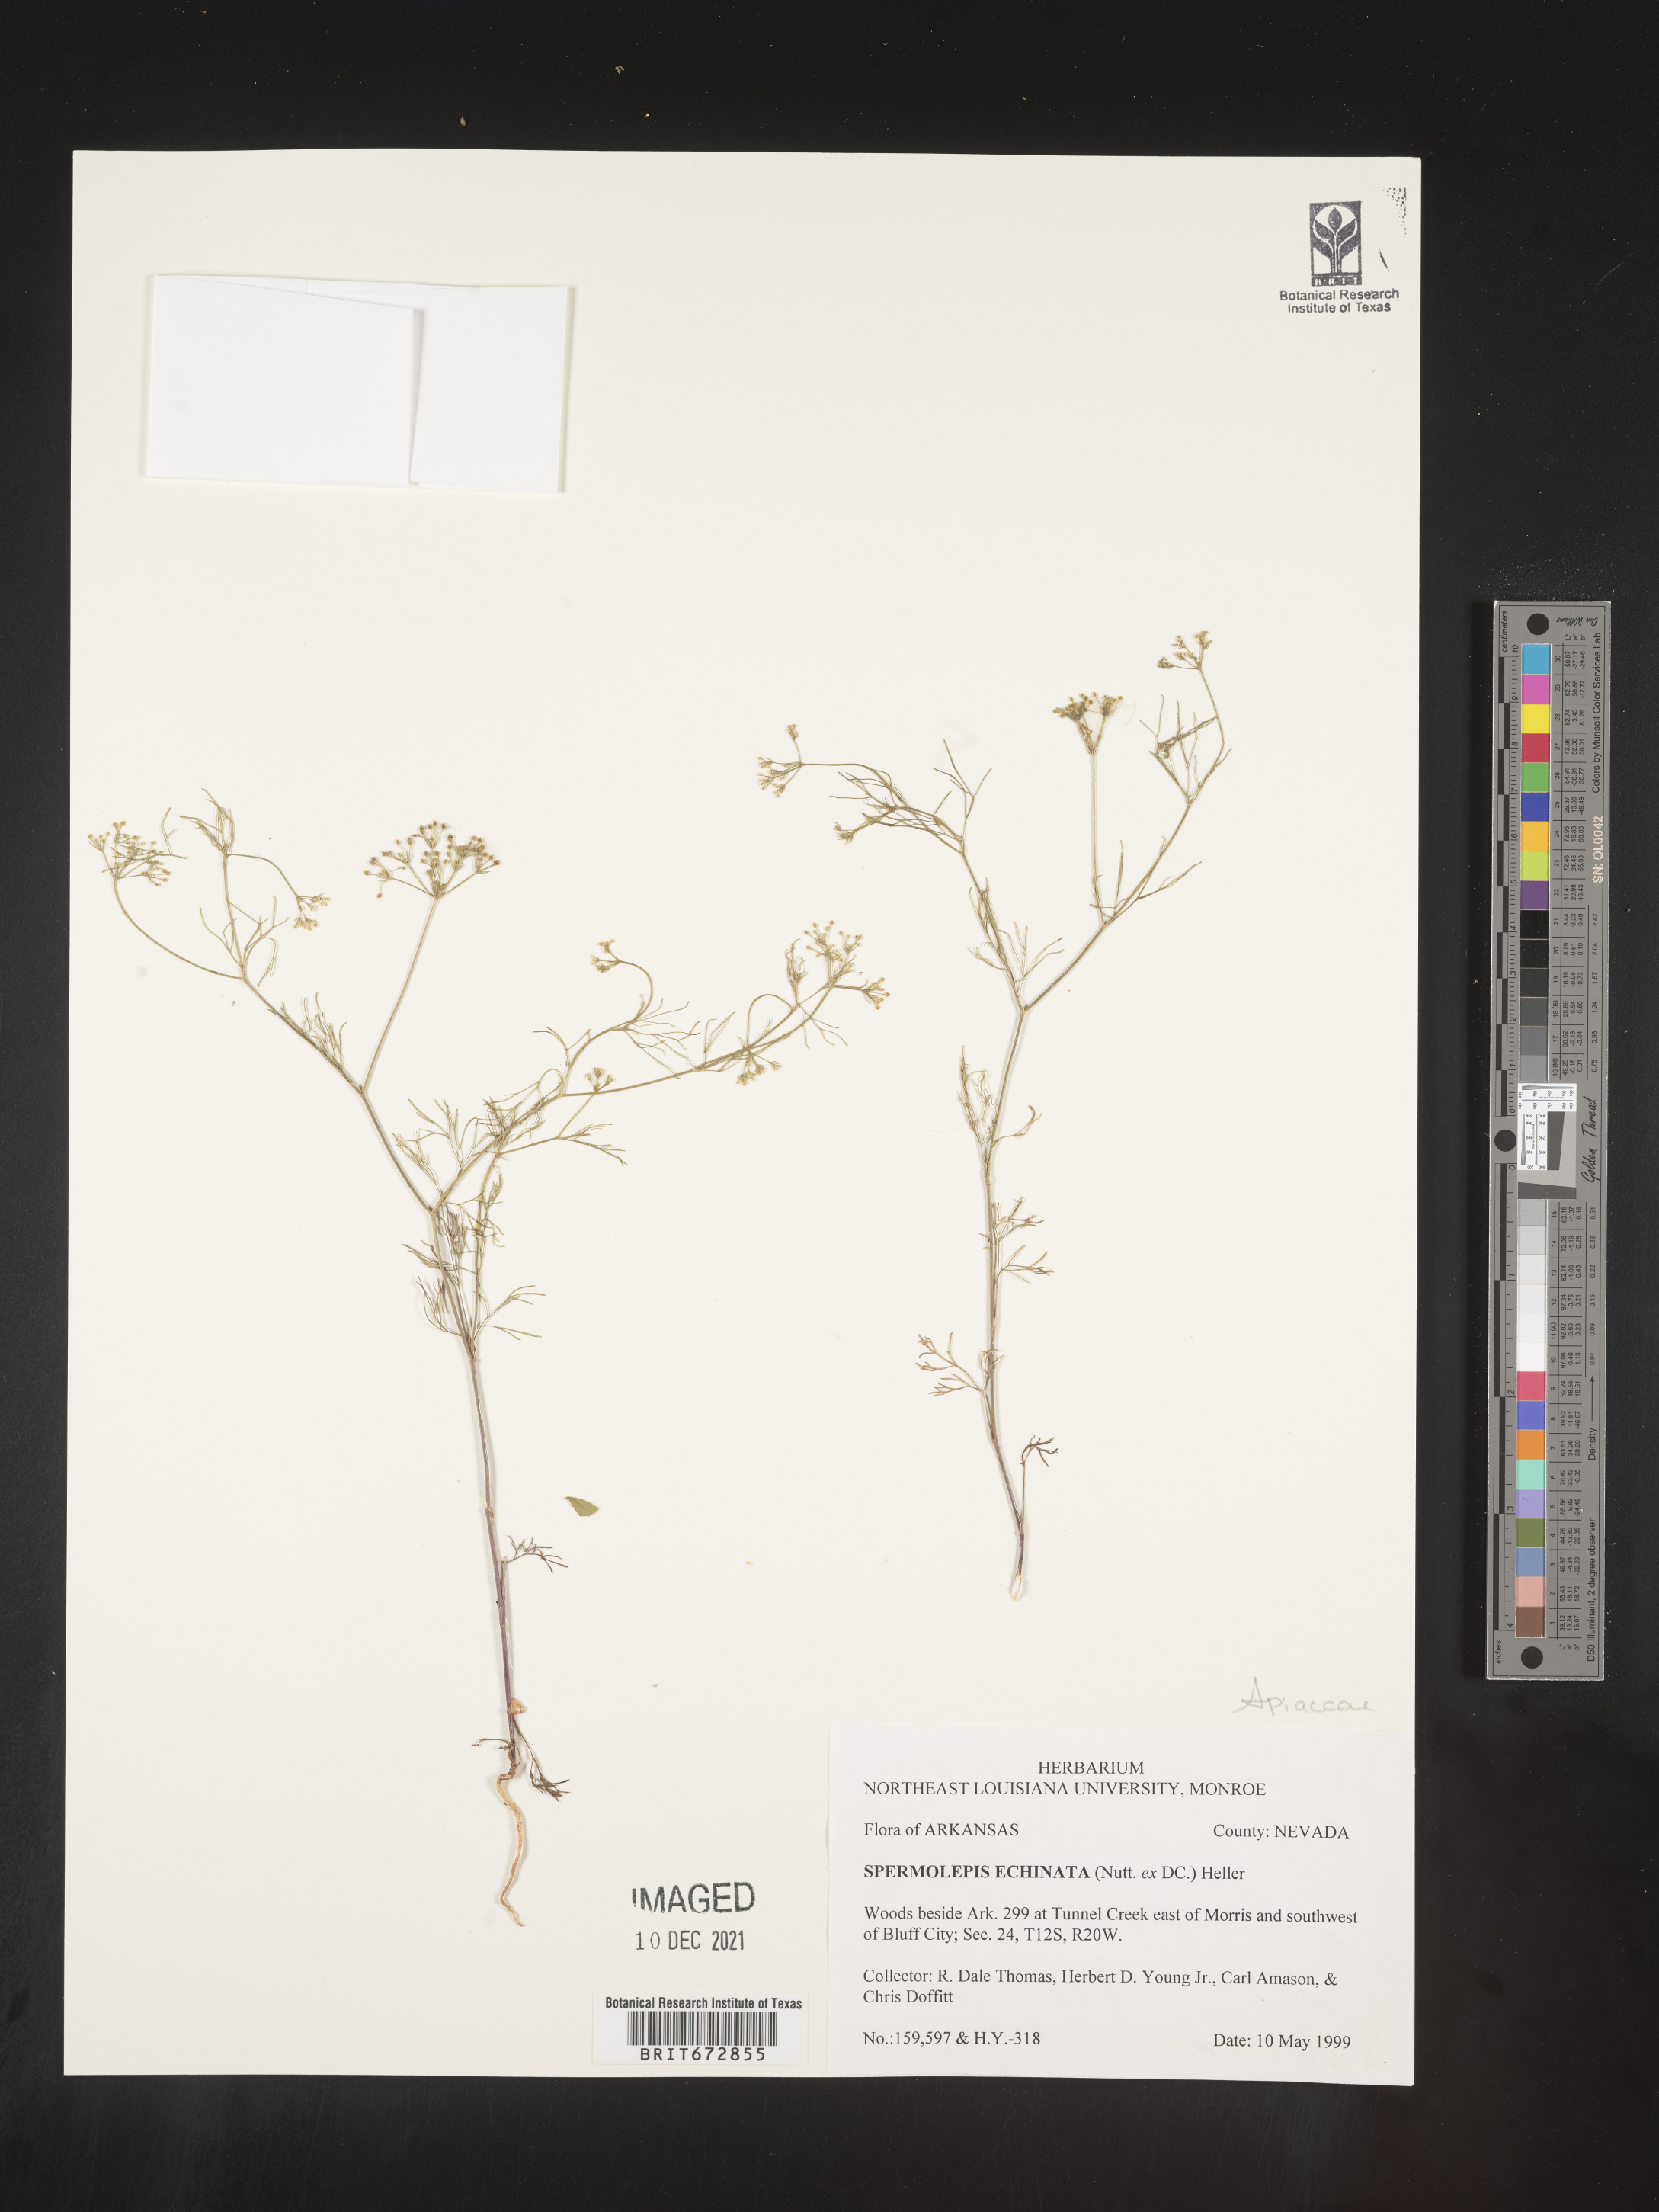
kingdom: Plantae
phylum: Tracheophyta
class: Magnoliopsida
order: Apiales
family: Apiaceae
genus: Spermolepis
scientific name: Spermolepis echinata
